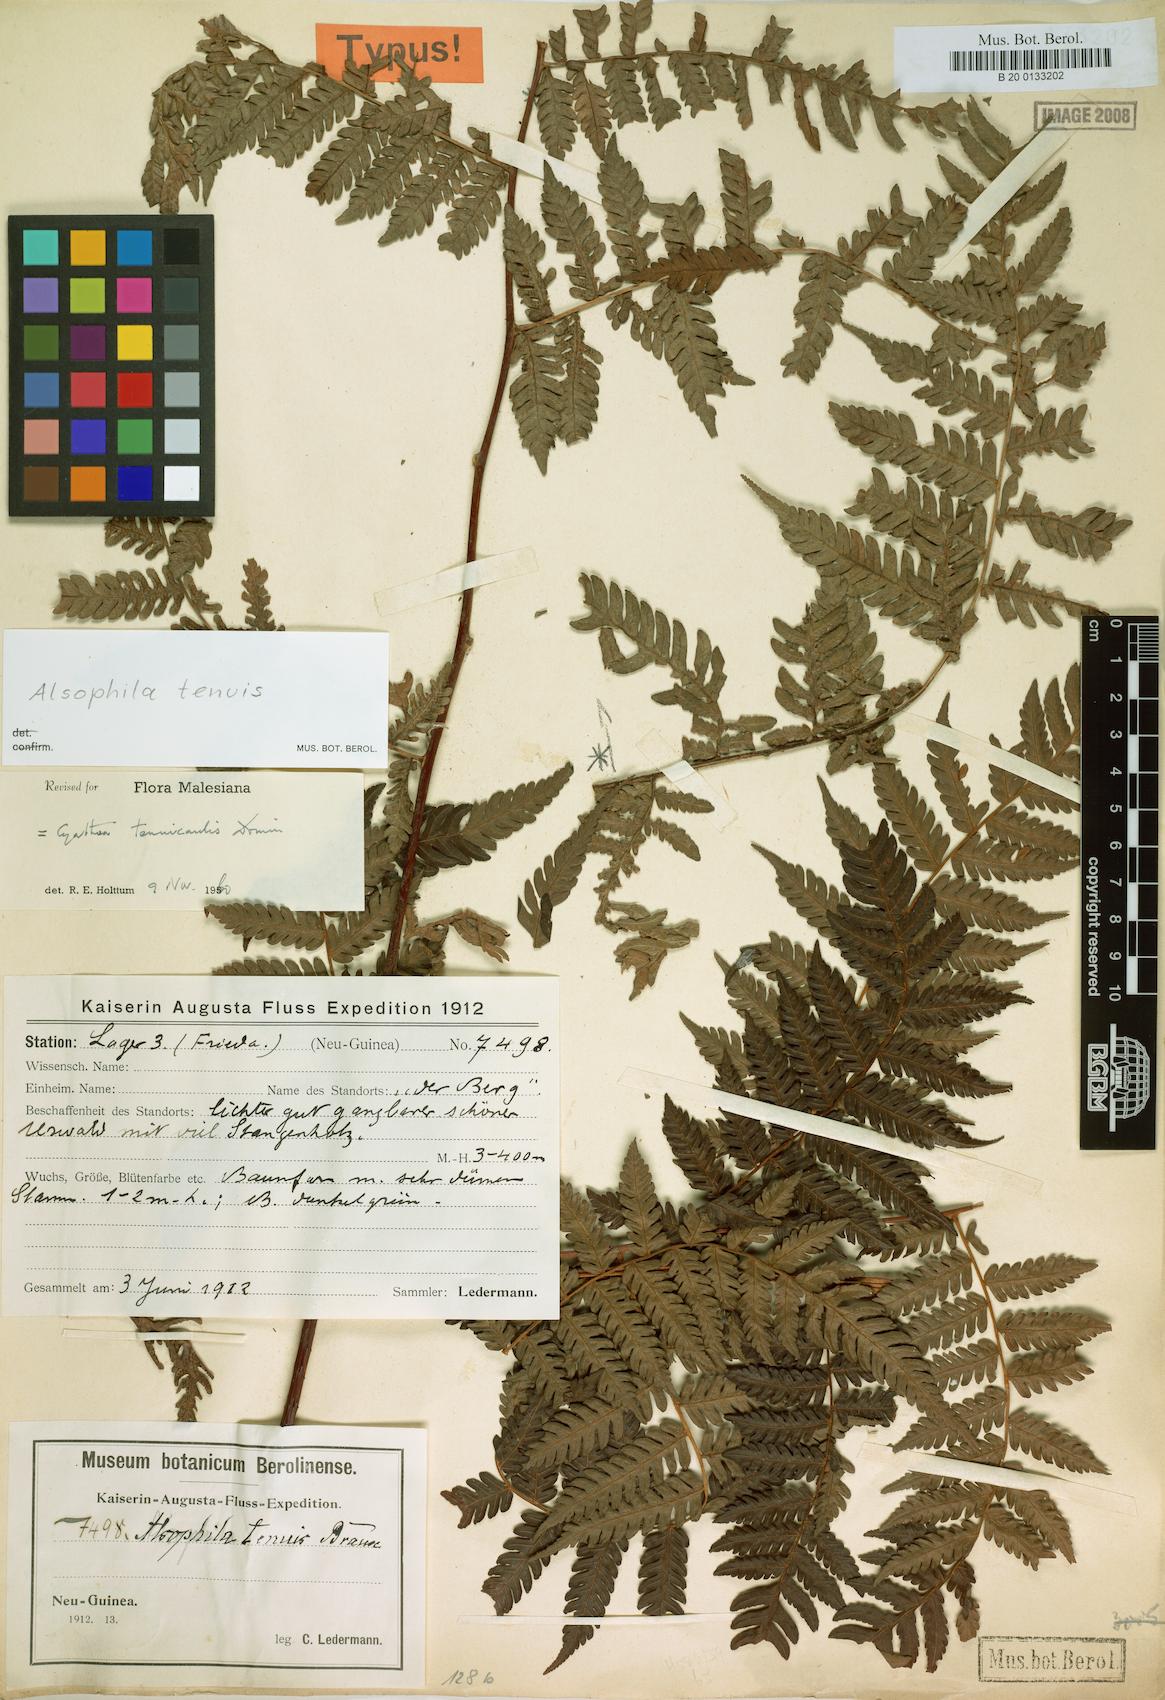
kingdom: Plantae
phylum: Tracheophyta
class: Polypodiopsida
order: Cyatheales
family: Cyatheaceae
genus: Alsophila
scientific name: Alsophila tenuis
